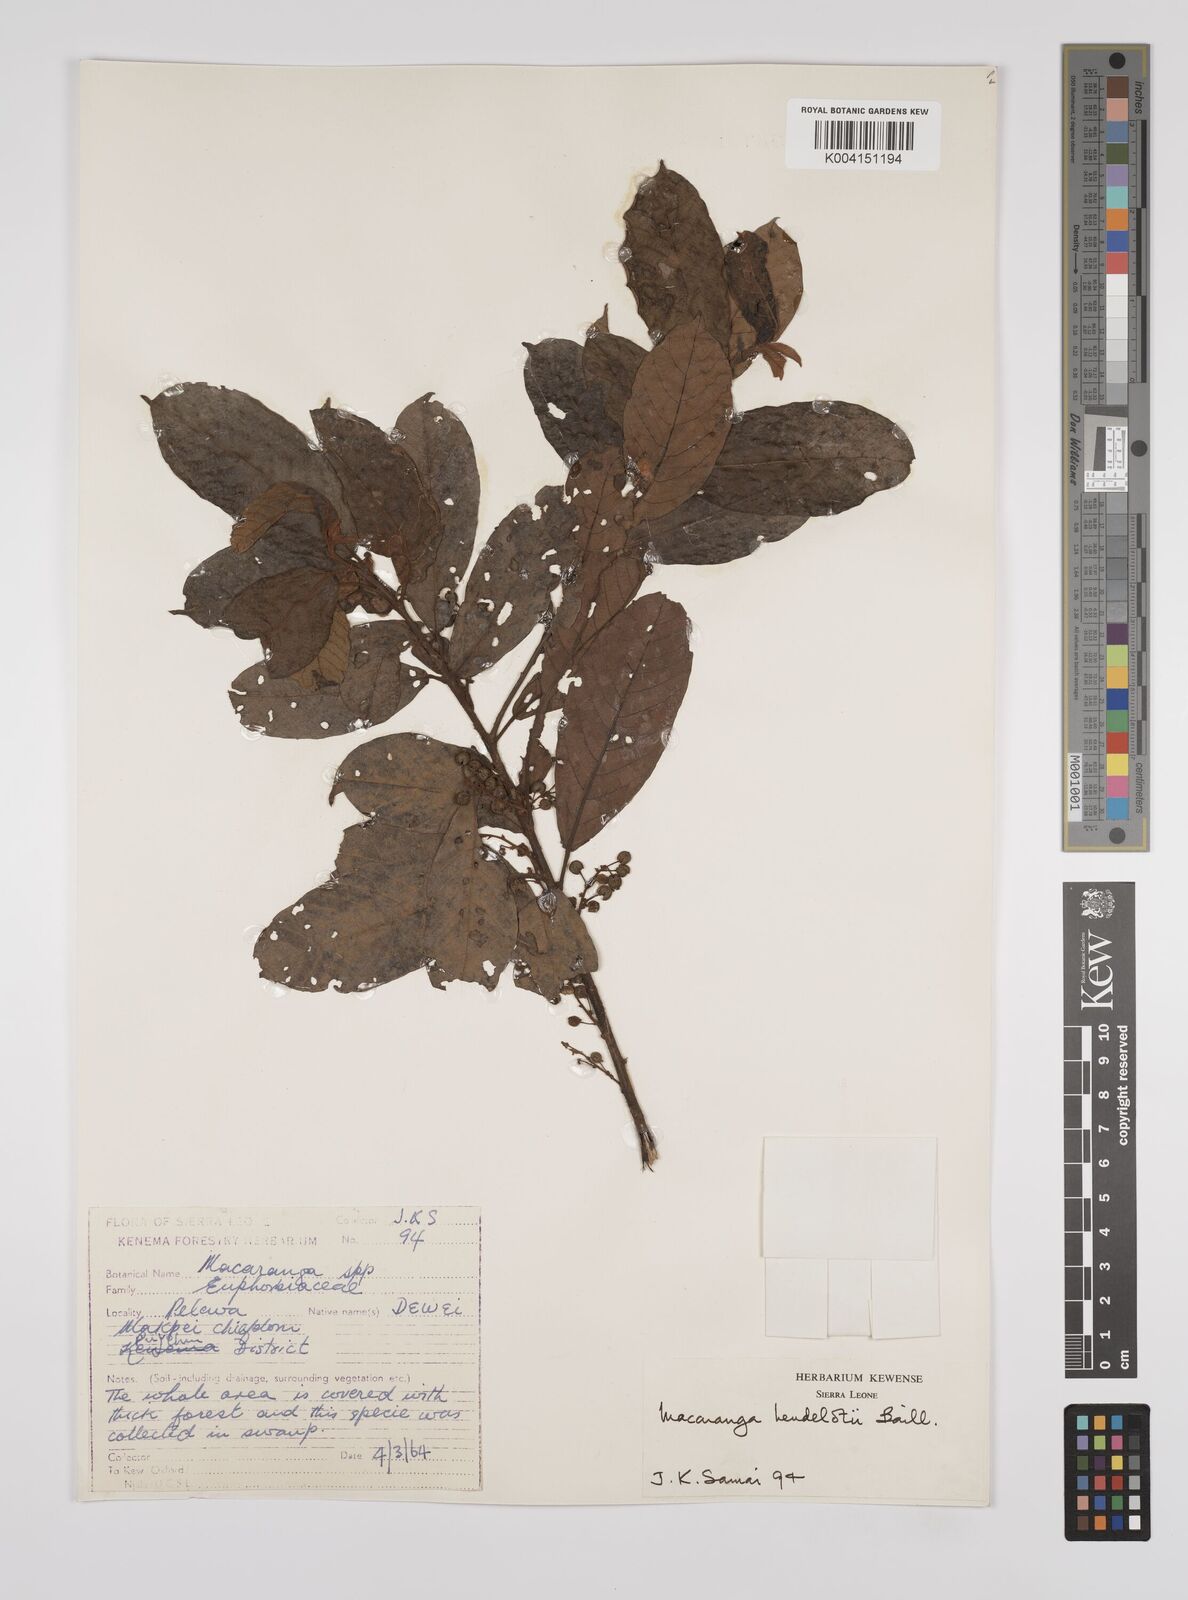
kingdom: Plantae
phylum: Tracheophyta
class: Magnoliopsida
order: Malpighiales
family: Euphorbiaceae
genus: Macaranga
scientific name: Macaranga heudelotii
